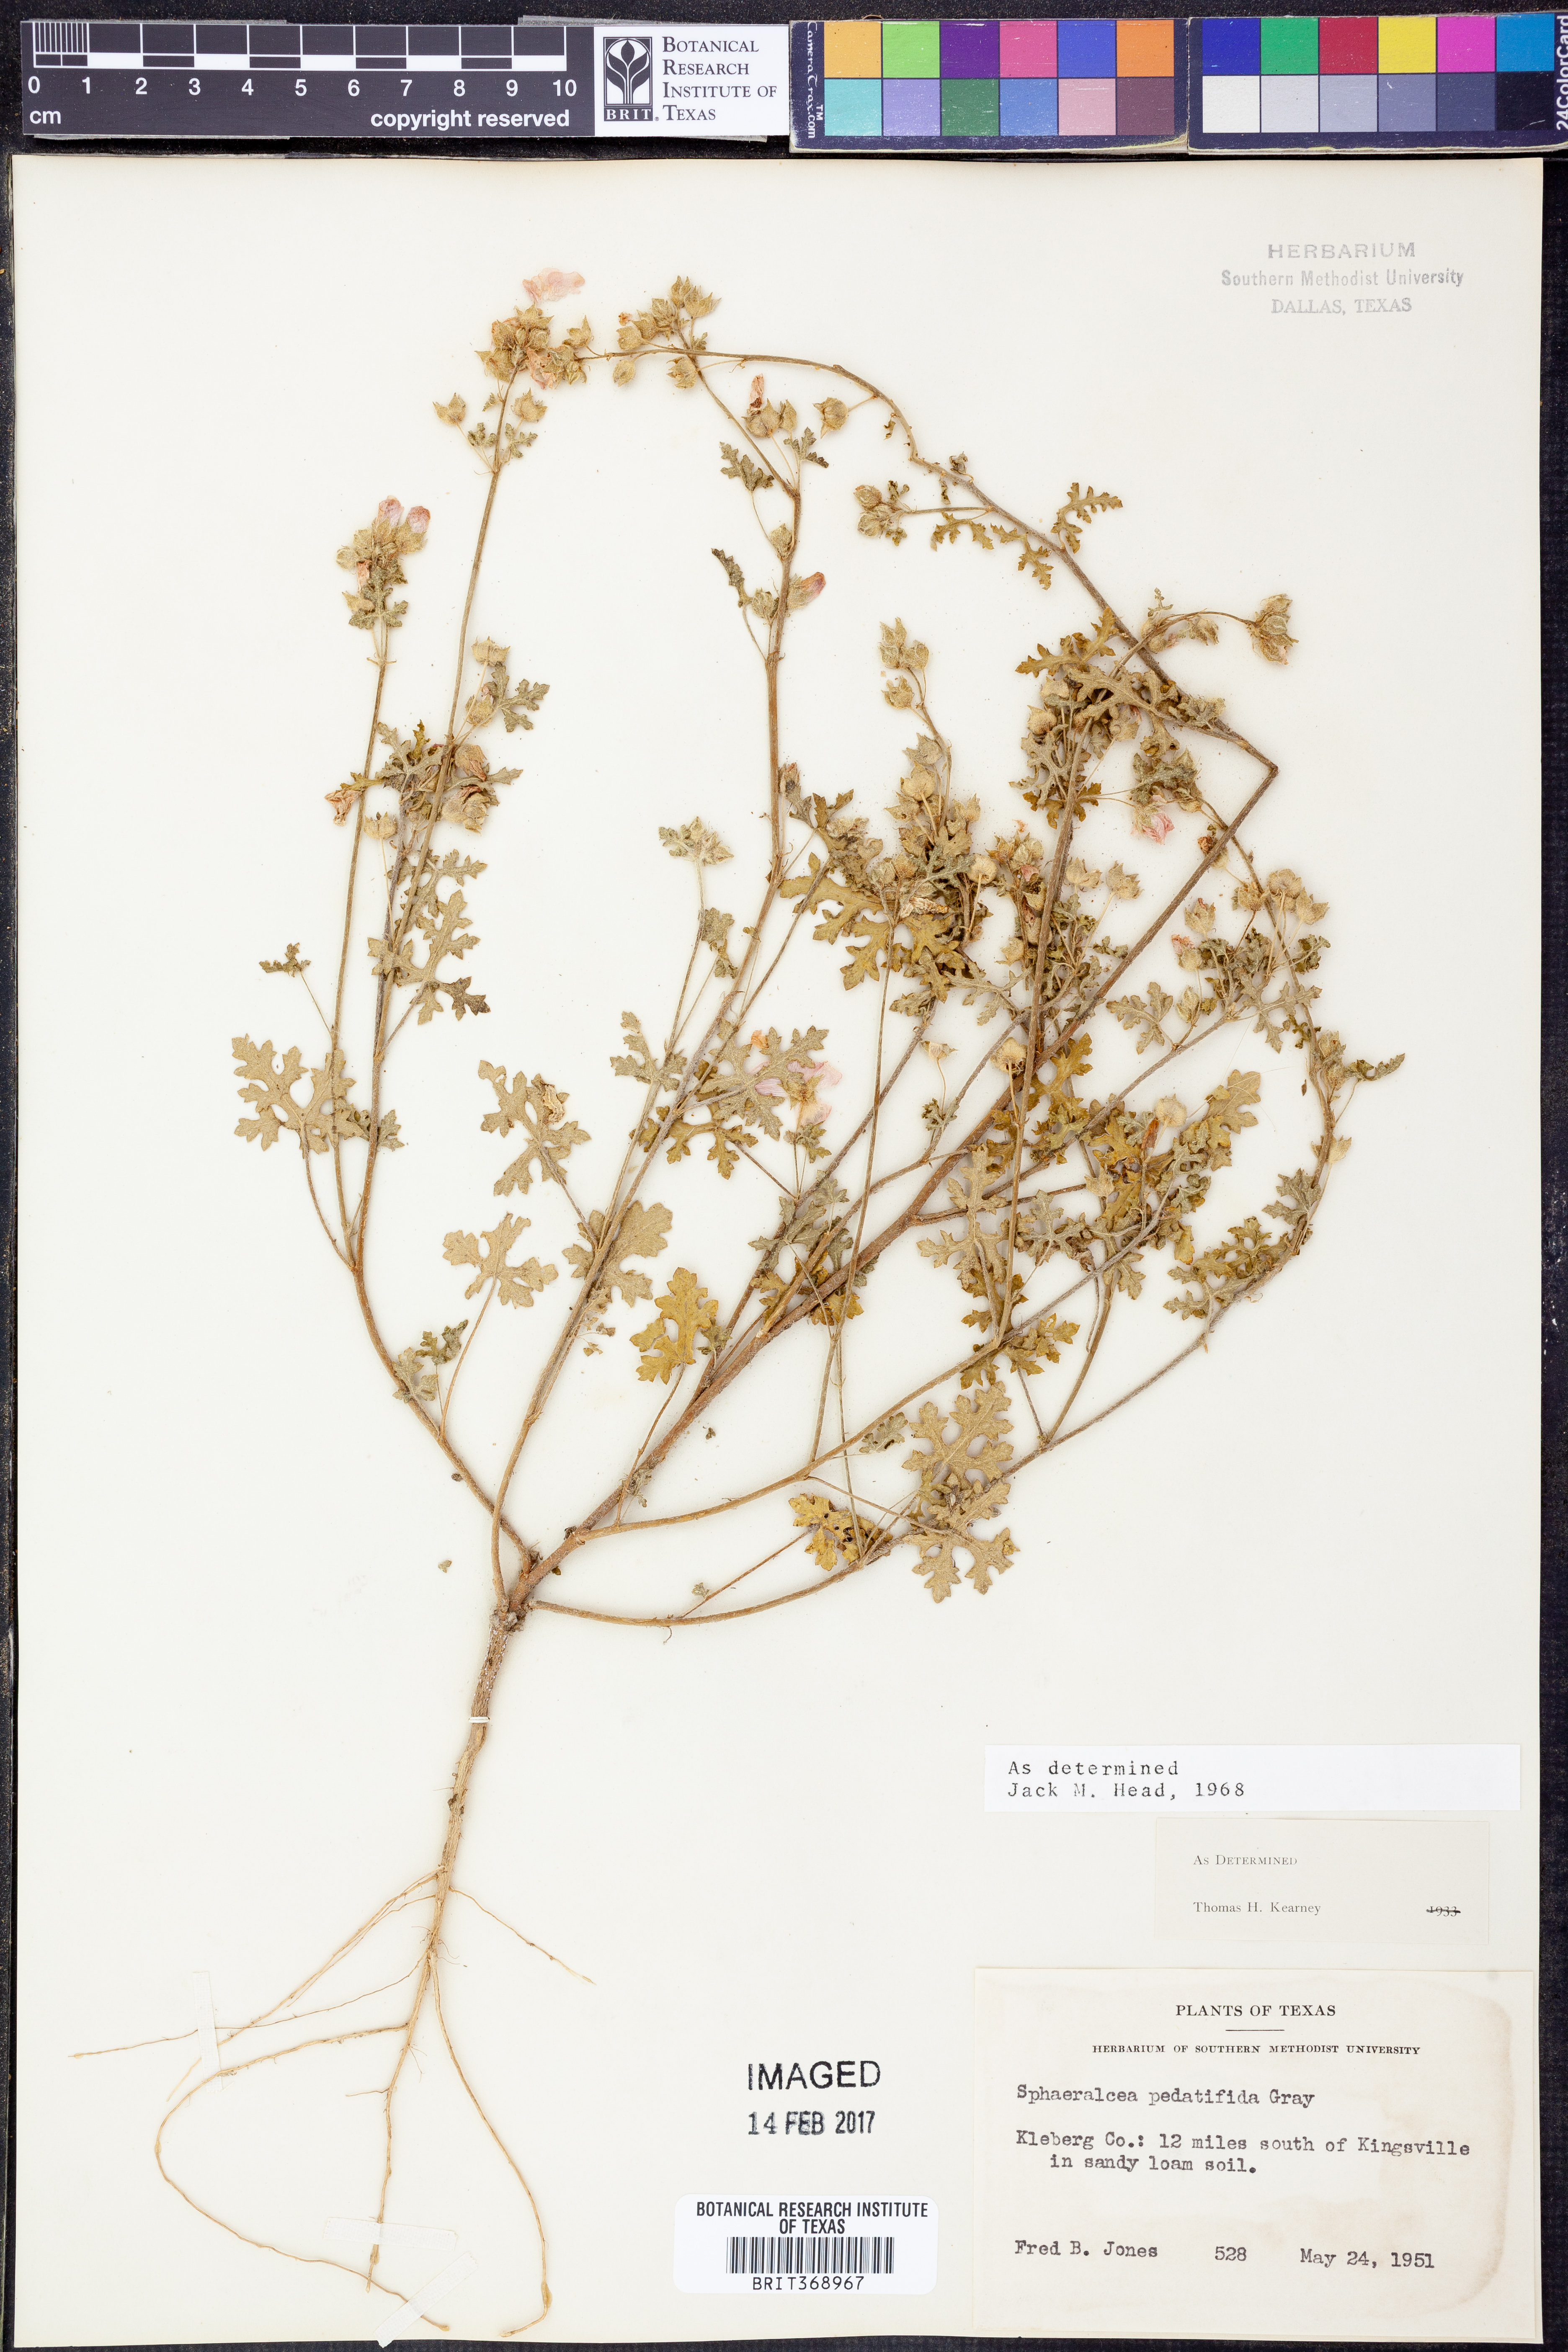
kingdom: Plantae
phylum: Tracheophyta
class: Magnoliopsida
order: Malvales
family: Malvaceae
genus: Sphaeralcea
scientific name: Sphaeralcea pedatifida
